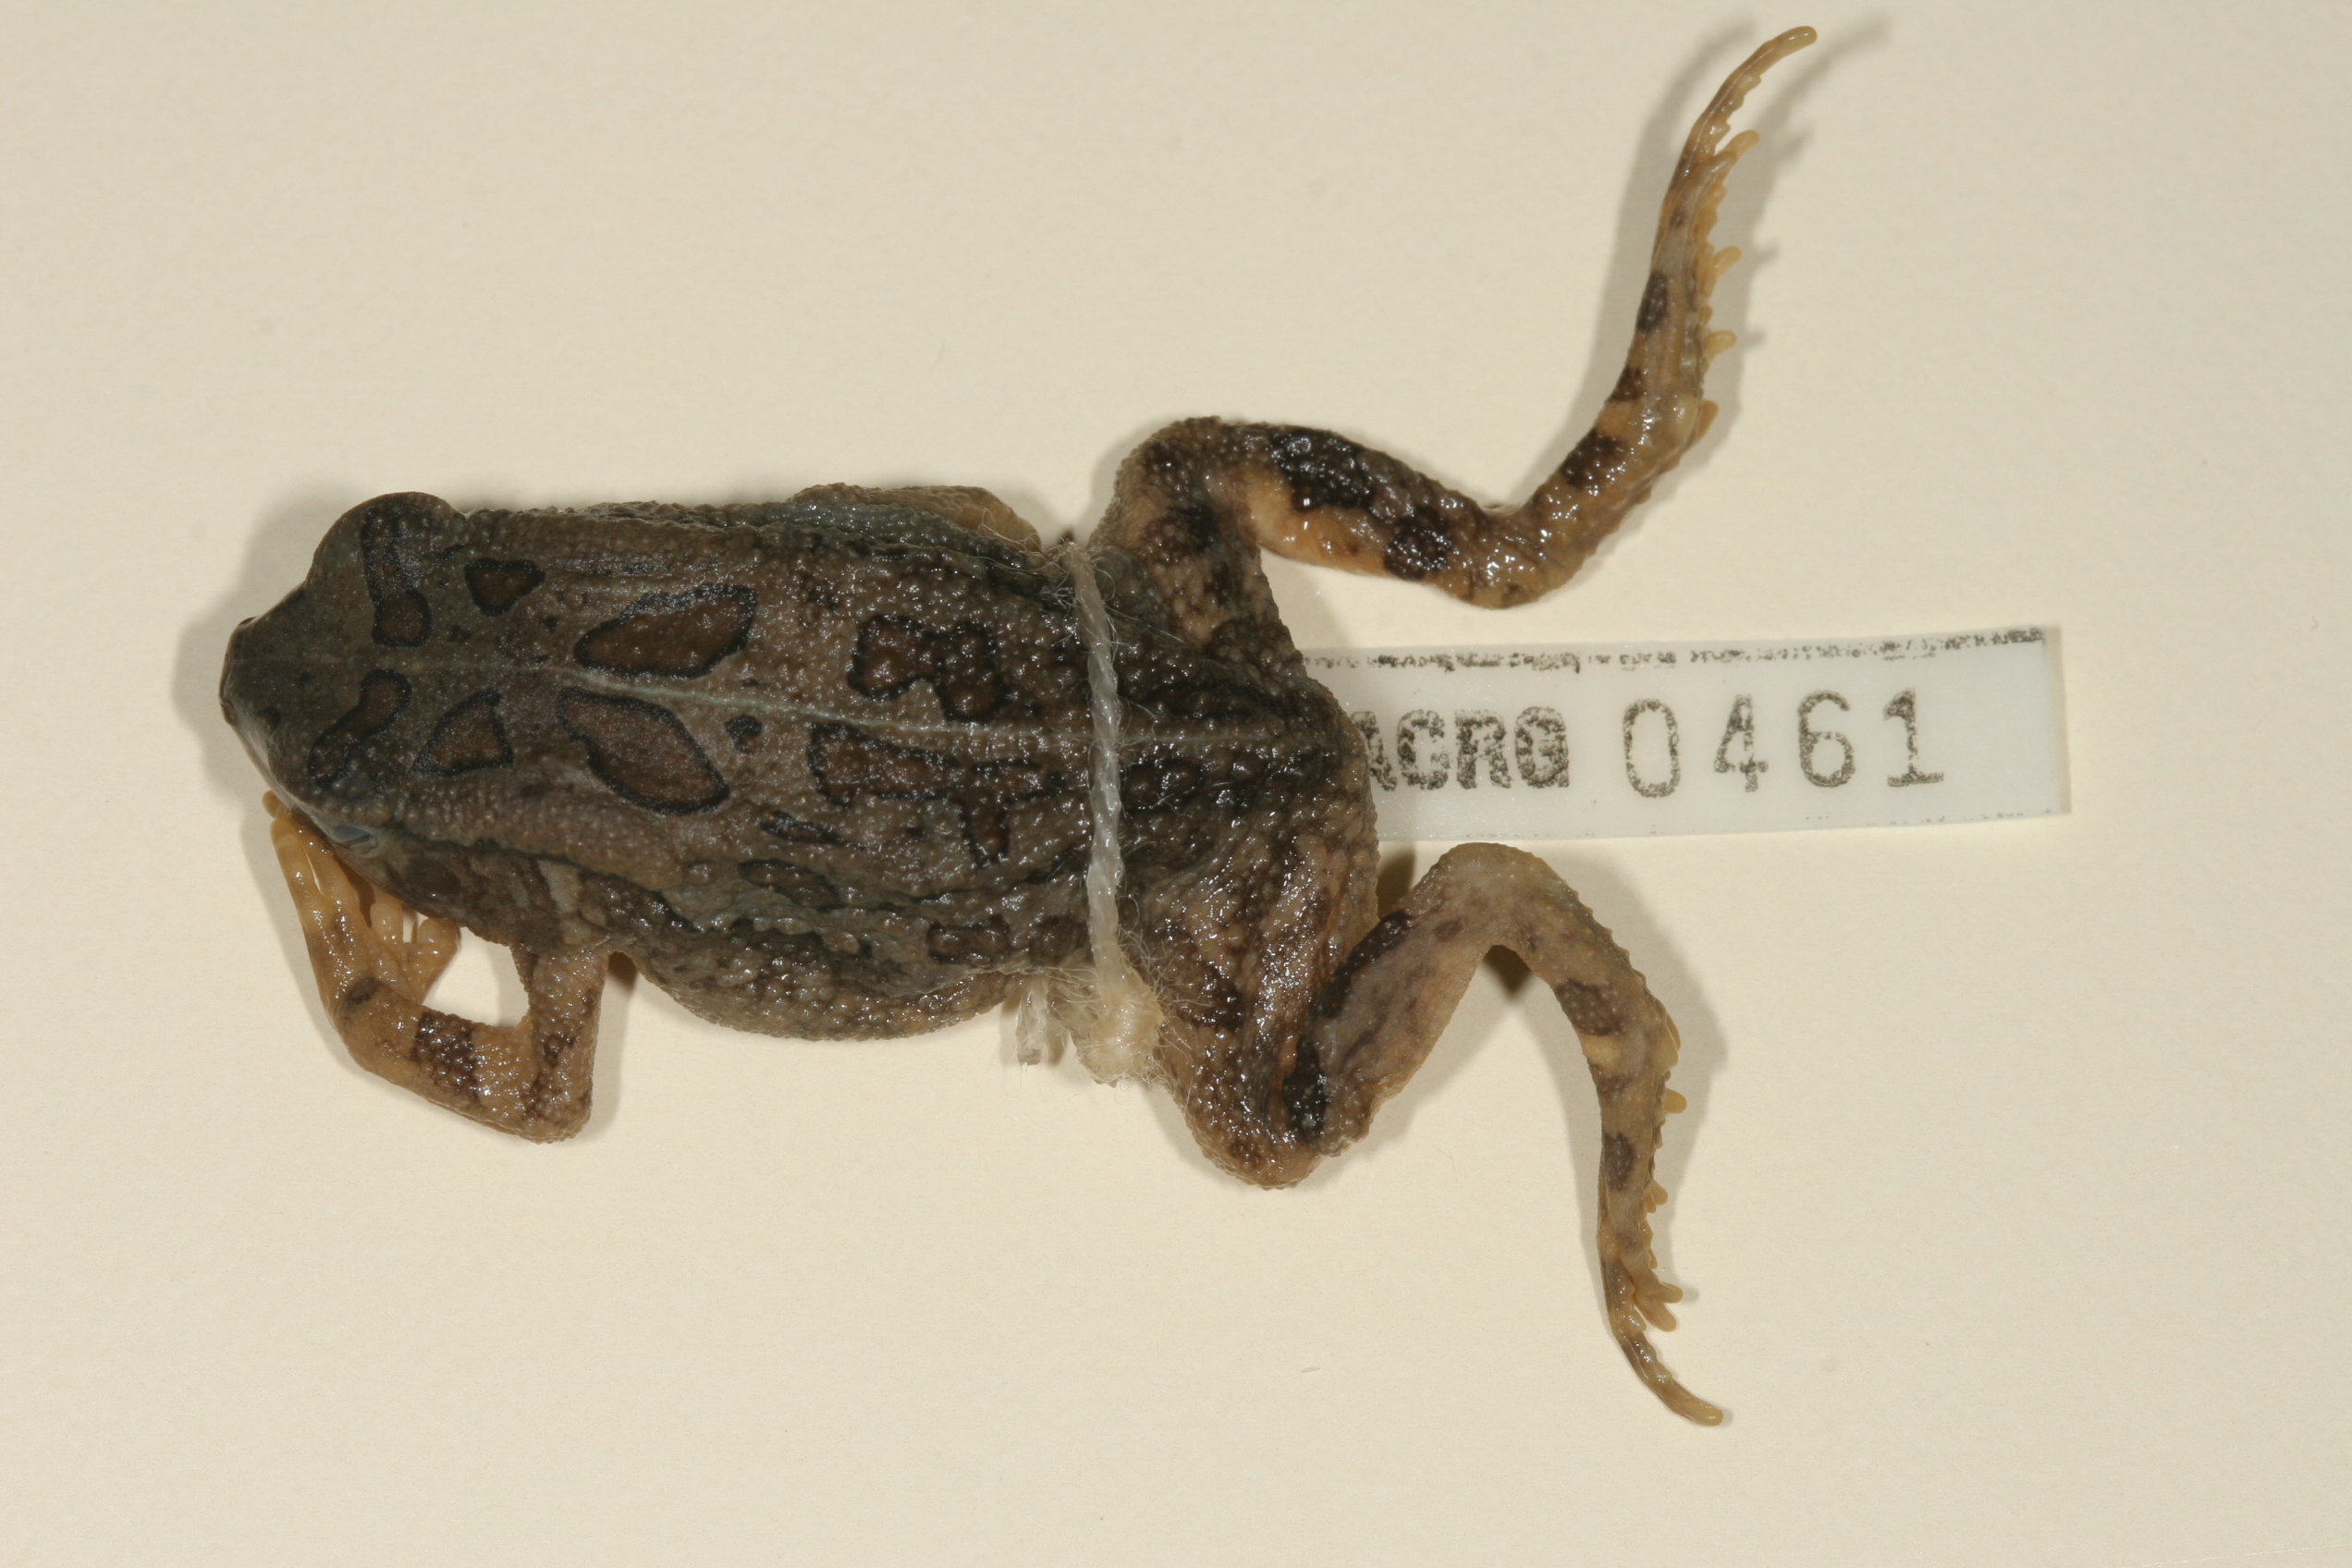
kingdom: Animalia
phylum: Chordata
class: Amphibia
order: Anura
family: Bufonidae
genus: Sclerophrys
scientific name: Sclerophrys garmani
